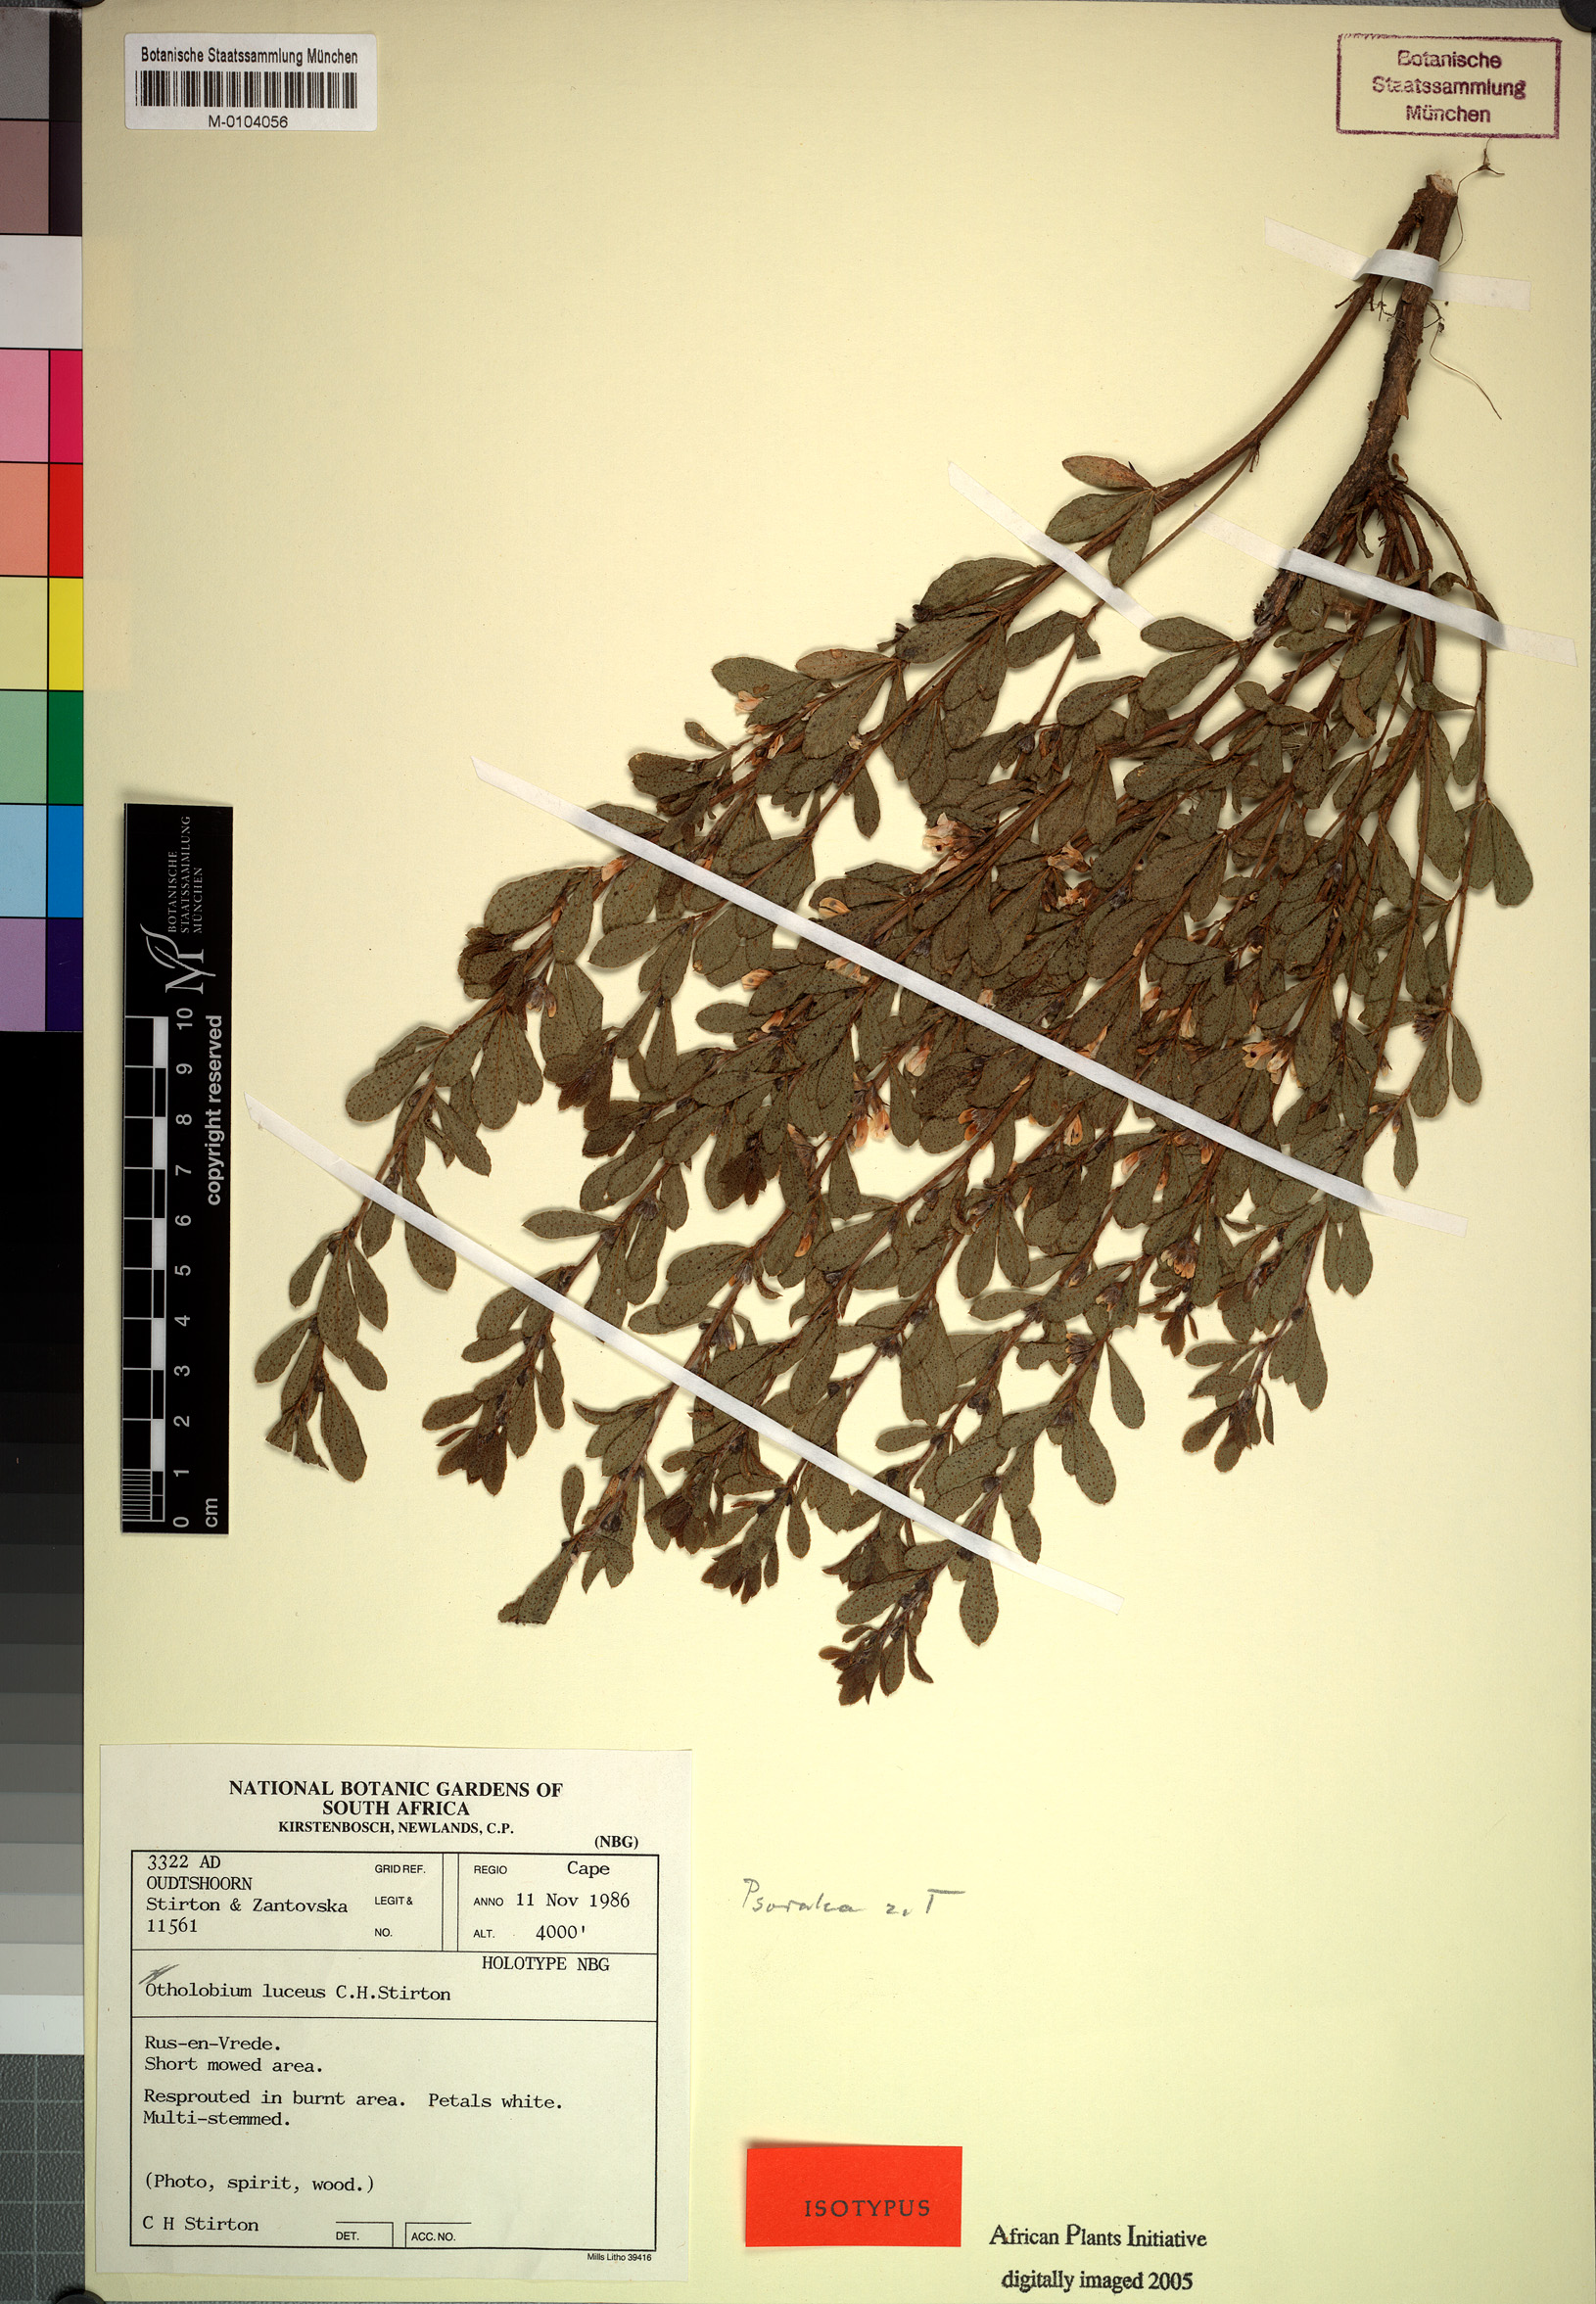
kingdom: Plantae
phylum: Tracheophyta
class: Magnoliopsida
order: Fabales
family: Fabaceae
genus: Psoralea
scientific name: Psoralea lucens
